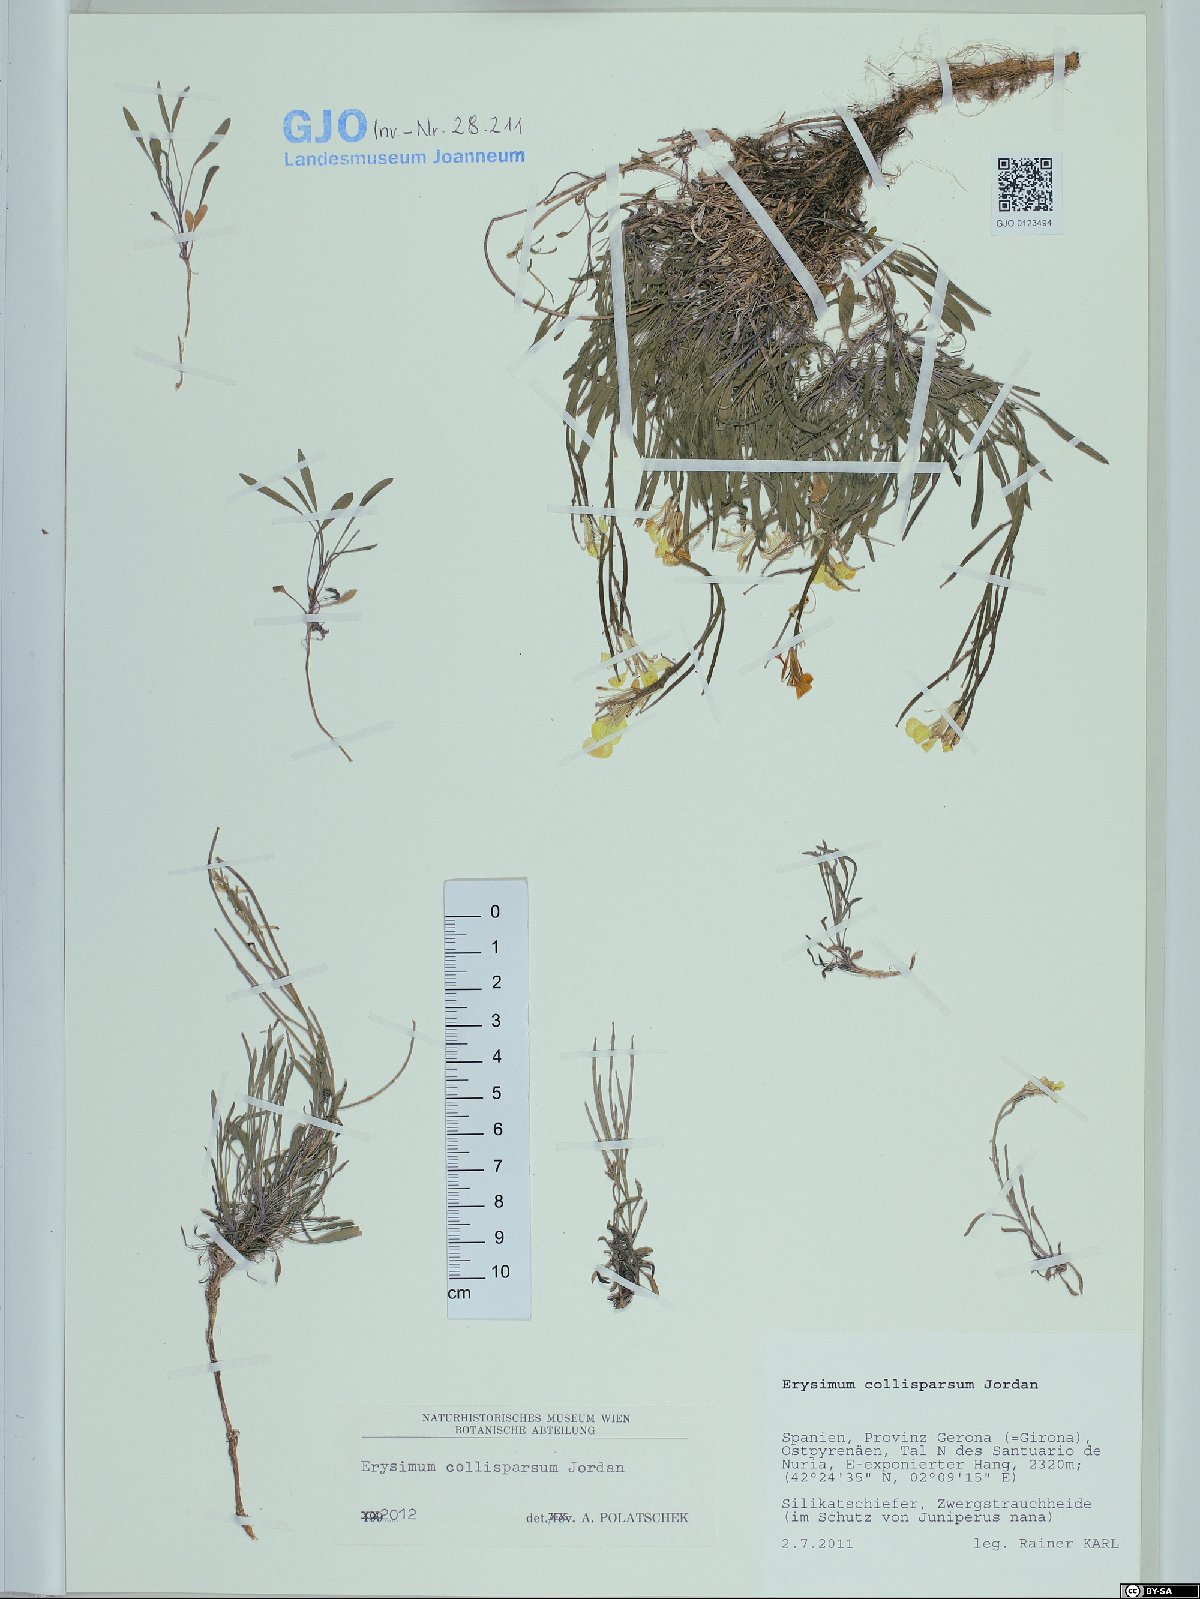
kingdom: Plantae
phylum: Tracheophyta
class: Magnoliopsida
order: Brassicales
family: Brassicaceae
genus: Erysimum
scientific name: Erysimum collisparsum
